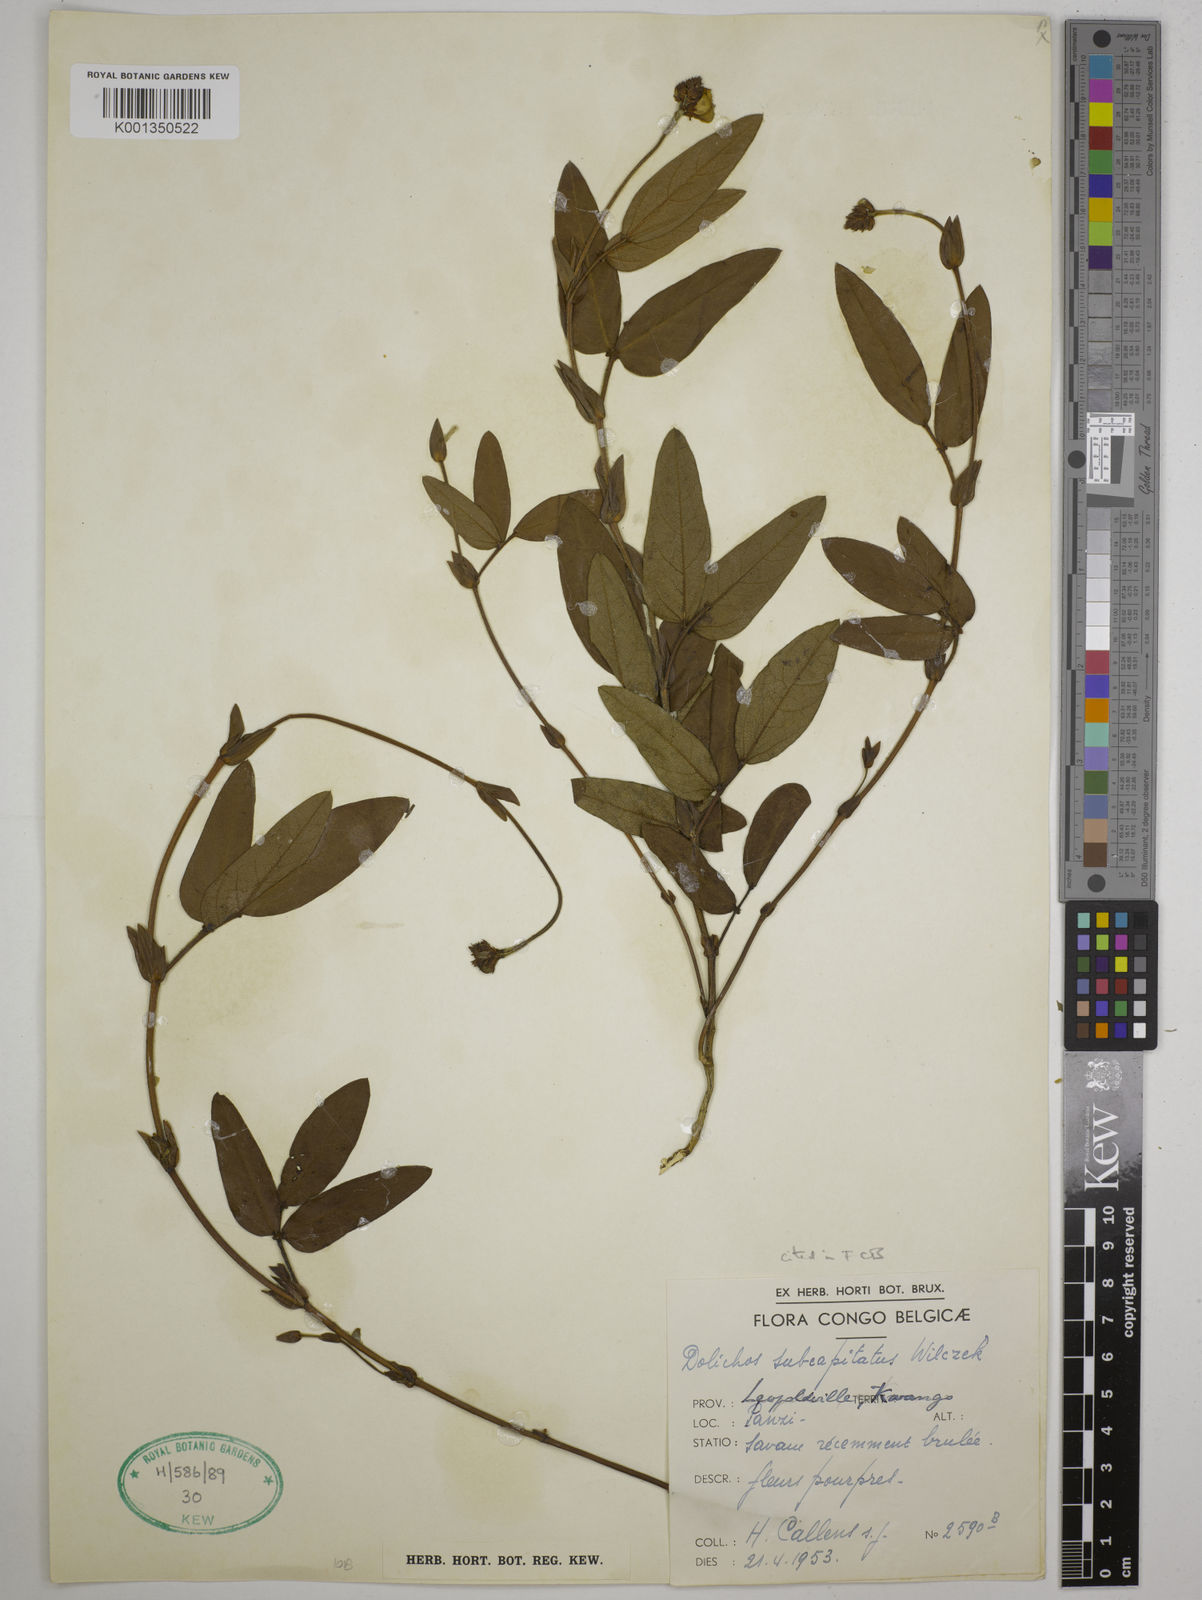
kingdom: Plantae
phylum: Tracheophyta
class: Magnoliopsida
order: Fabales
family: Fabaceae
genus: Psophocarpus
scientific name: Psophocarpus scandens
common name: Tropical african winged-bean
